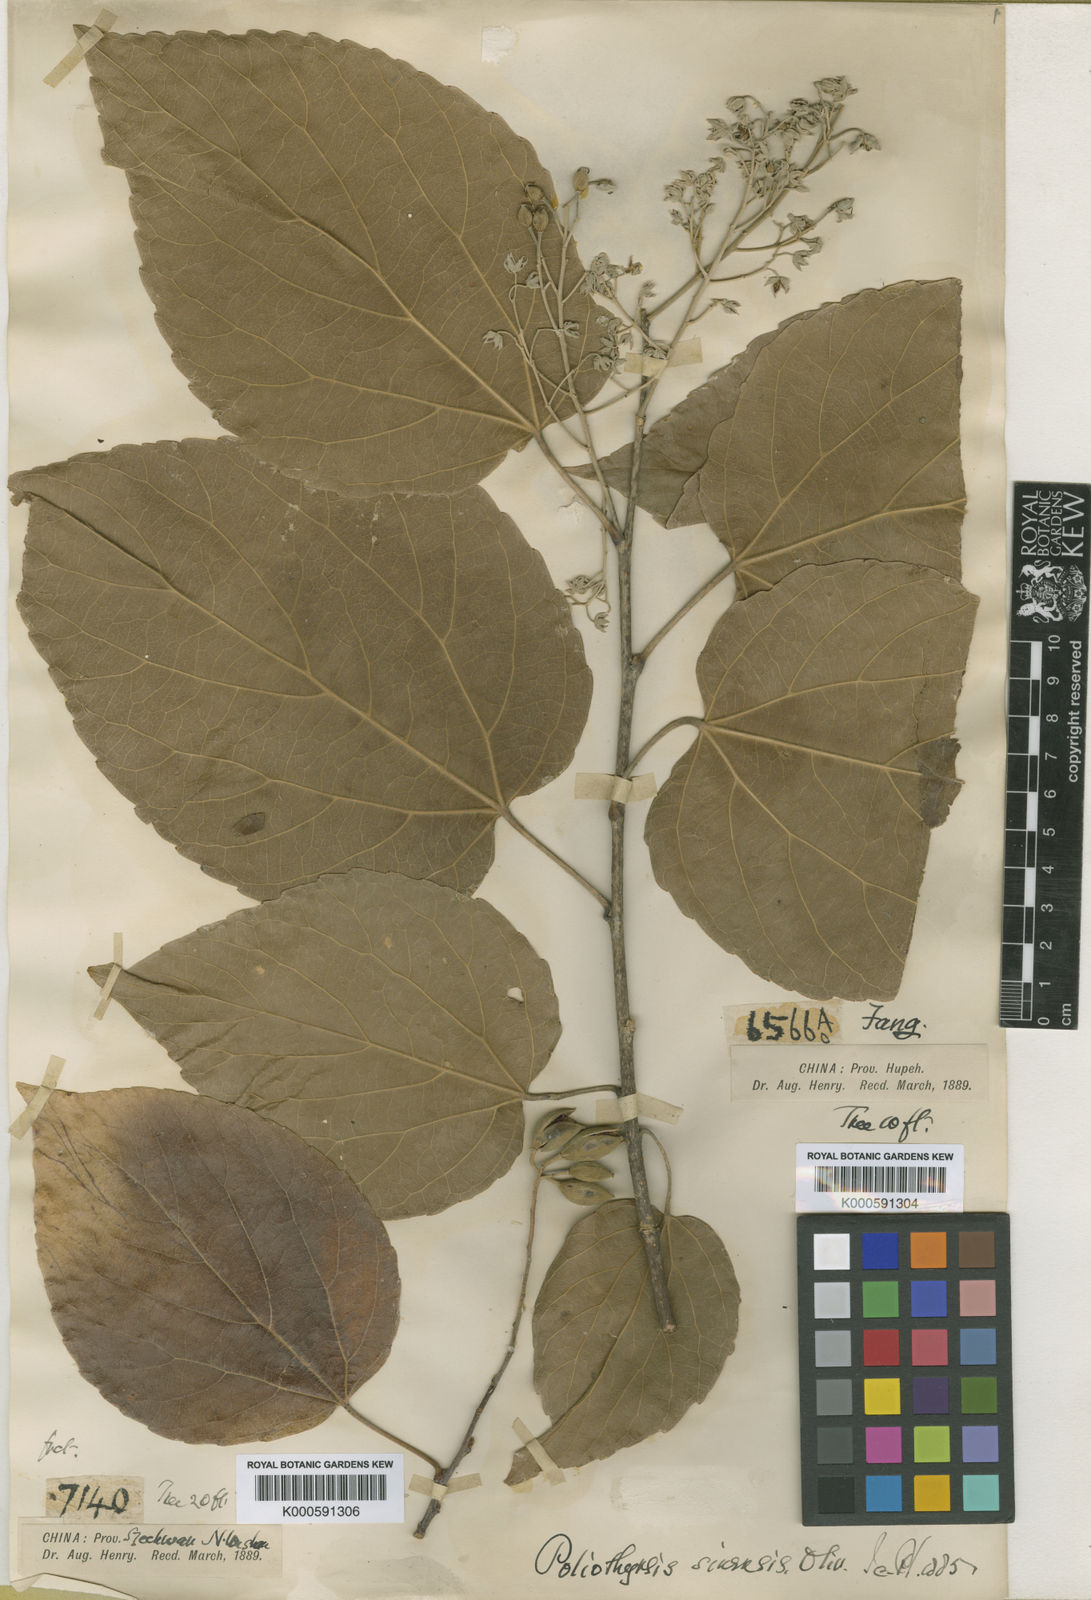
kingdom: Plantae
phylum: Tracheophyta
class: Magnoliopsida
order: Malpighiales
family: Salicaceae
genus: Poliothyrsis
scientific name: Poliothyrsis
